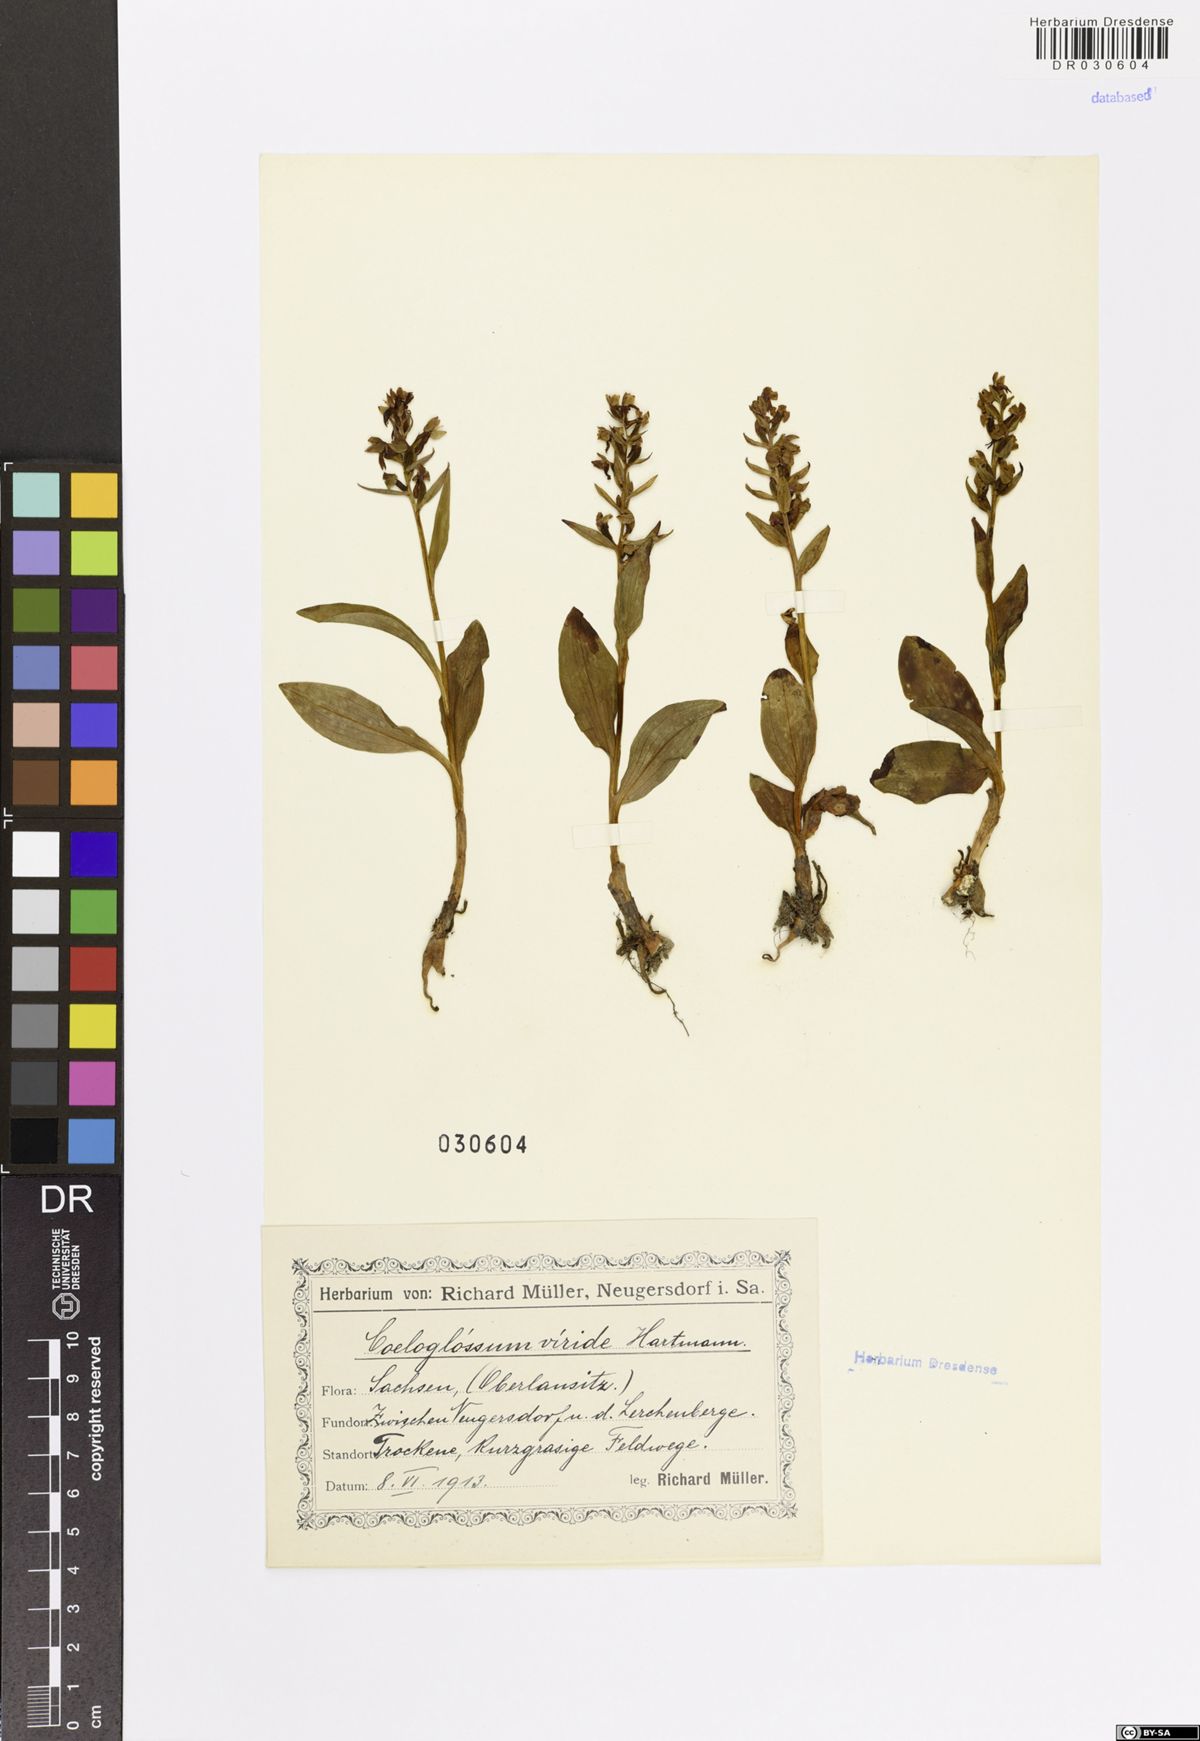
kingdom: Plantae
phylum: Tracheophyta
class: Liliopsida
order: Asparagales
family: Orchidaceae
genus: Dactylorhiza
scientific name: Dactylorhiza viridis
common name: Longbract frog orchid
